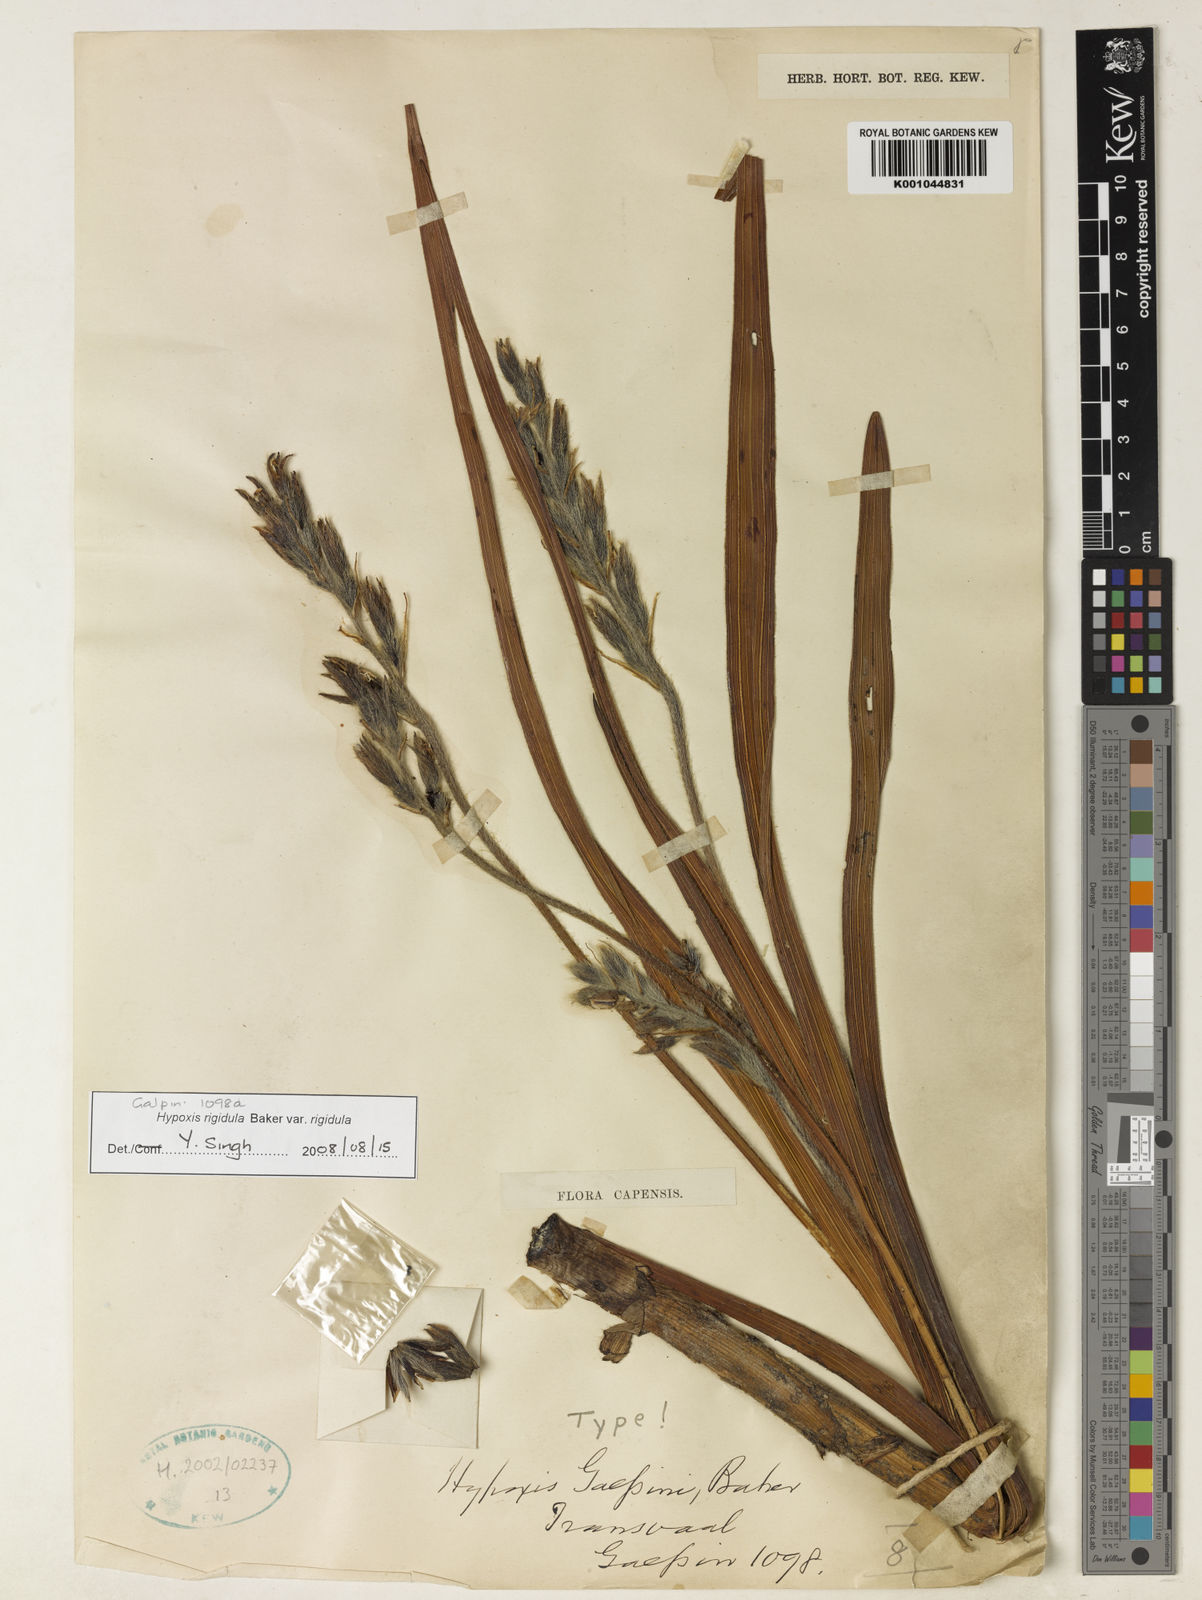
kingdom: Plantae
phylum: Tracheophyta
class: Liliopsida
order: Asparagales
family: Hypoxidaceae
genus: Hypoxis
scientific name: Hypoxis rigidula
